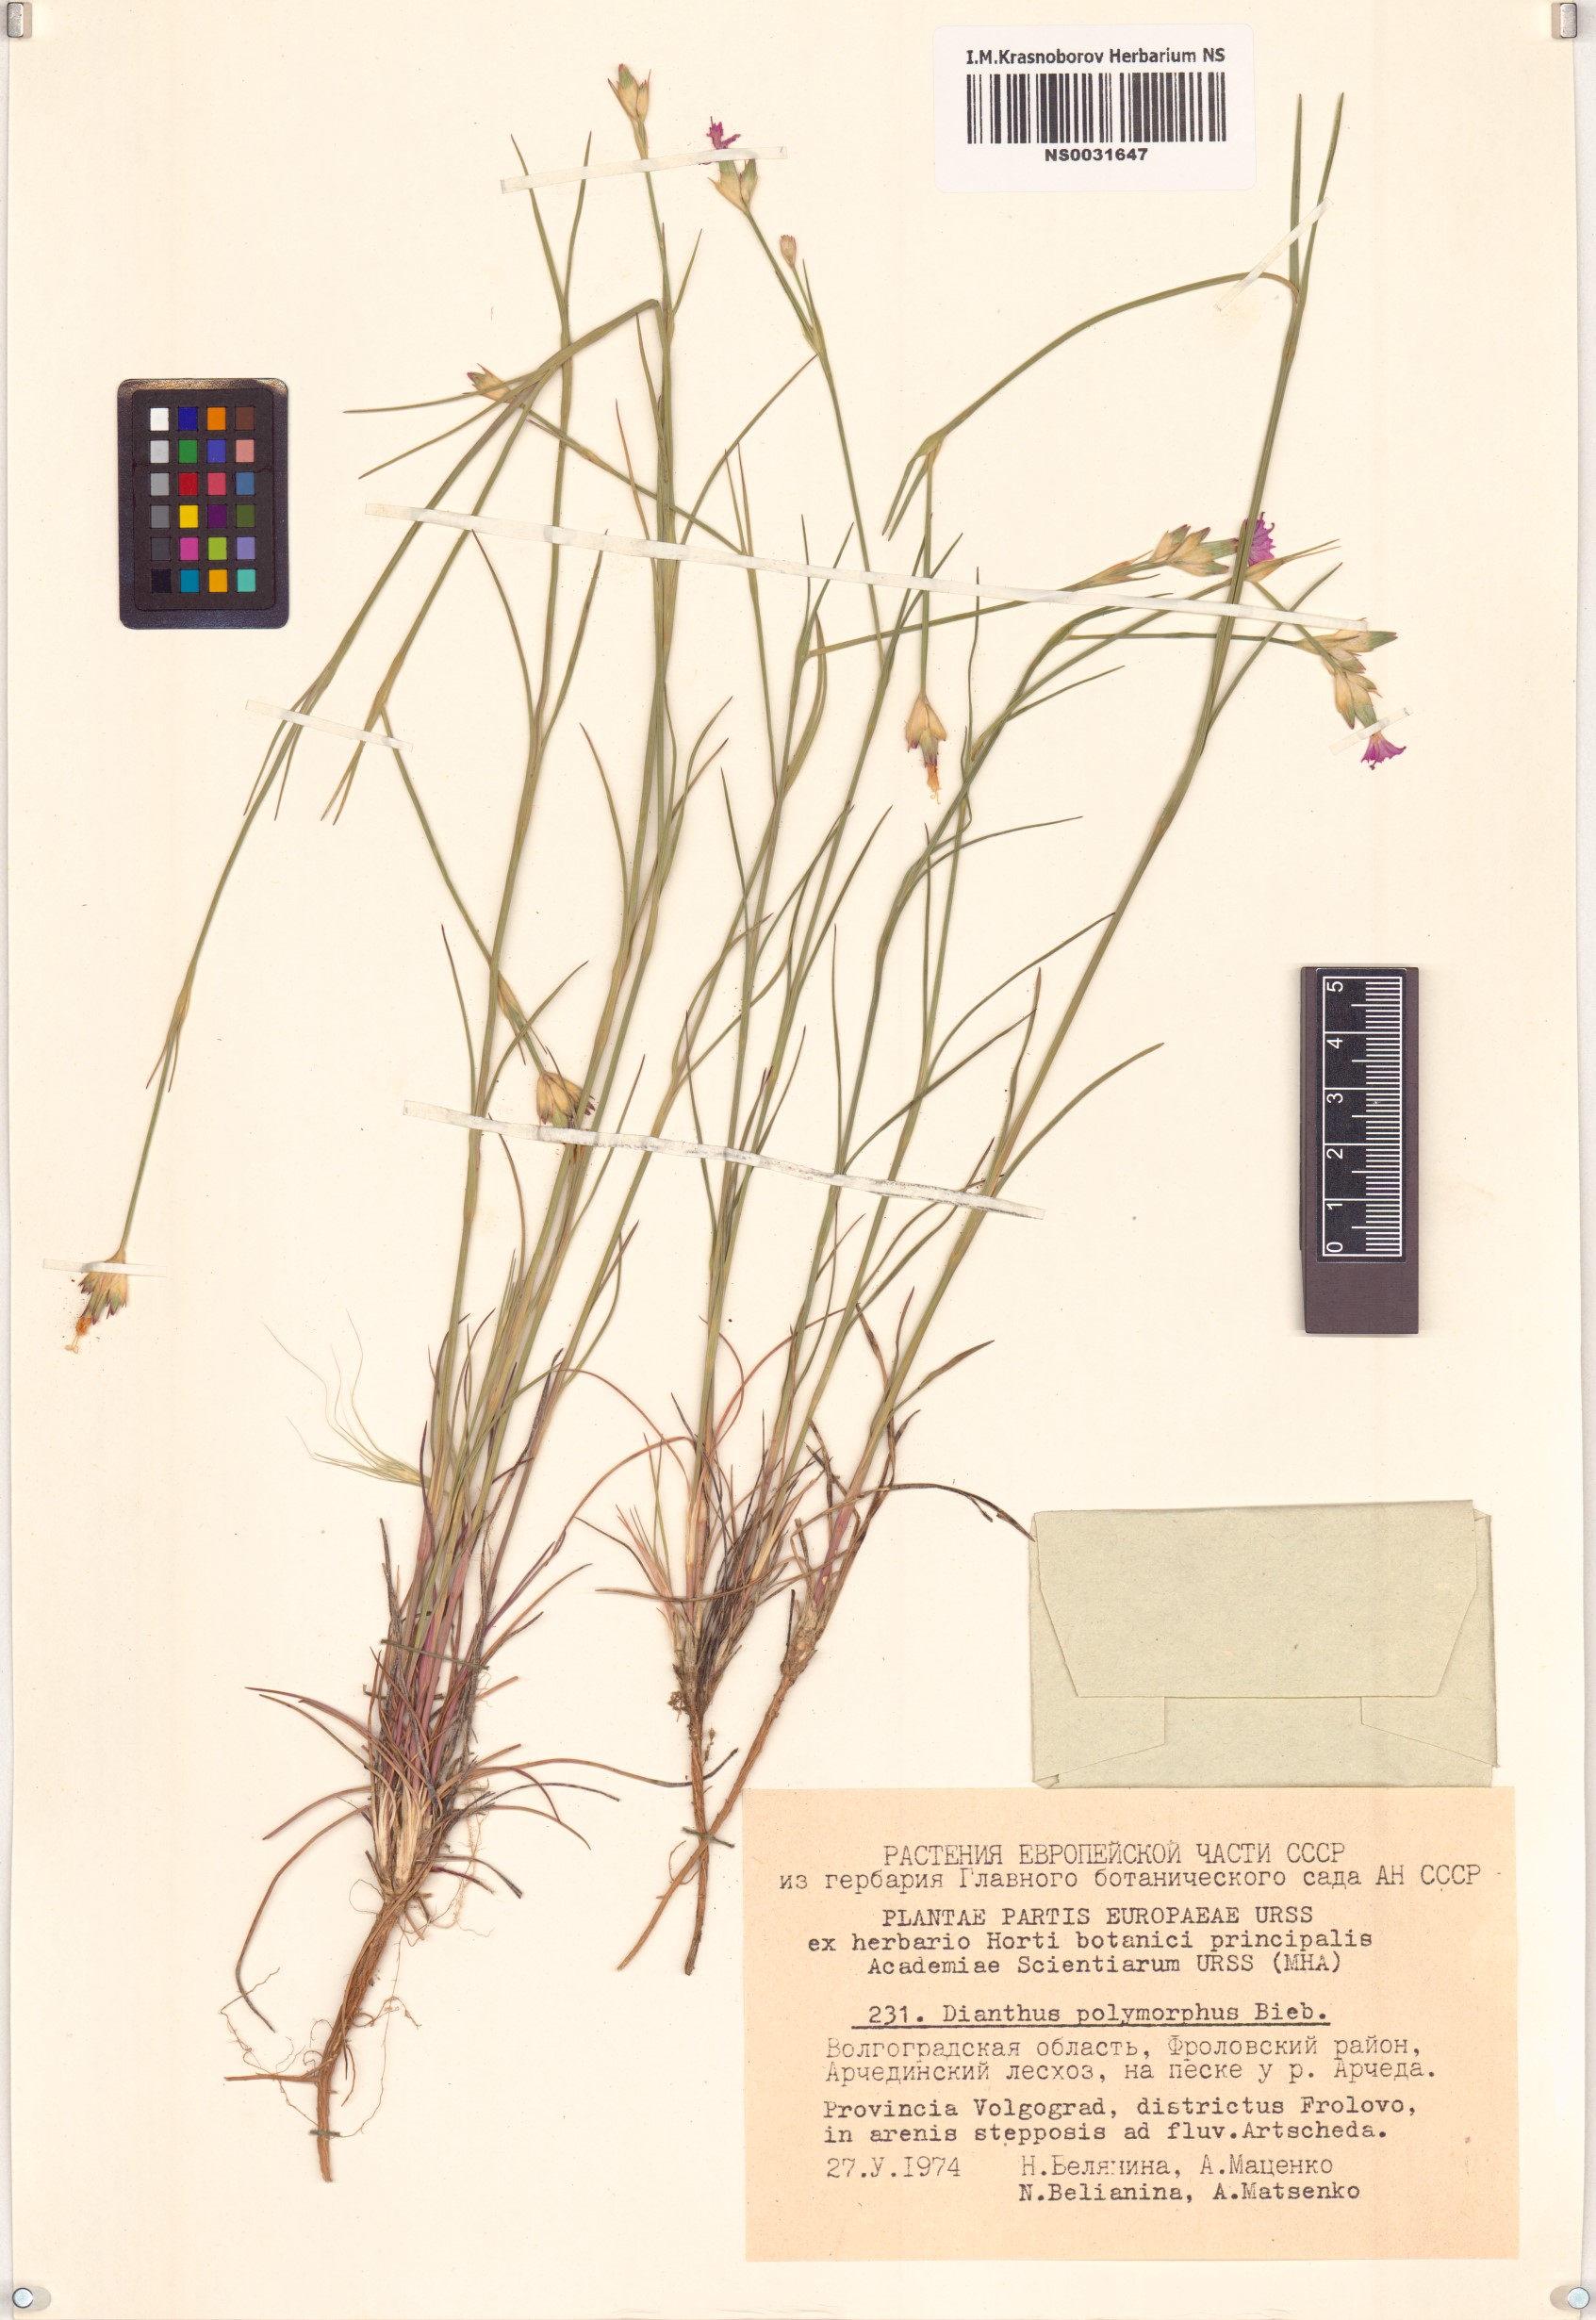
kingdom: Plantae
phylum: Tracheophyta
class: Magnoliopsida
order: Caryophyllales
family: Caryophyllaceae
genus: Dianthus
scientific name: Dianthus polymorphus
